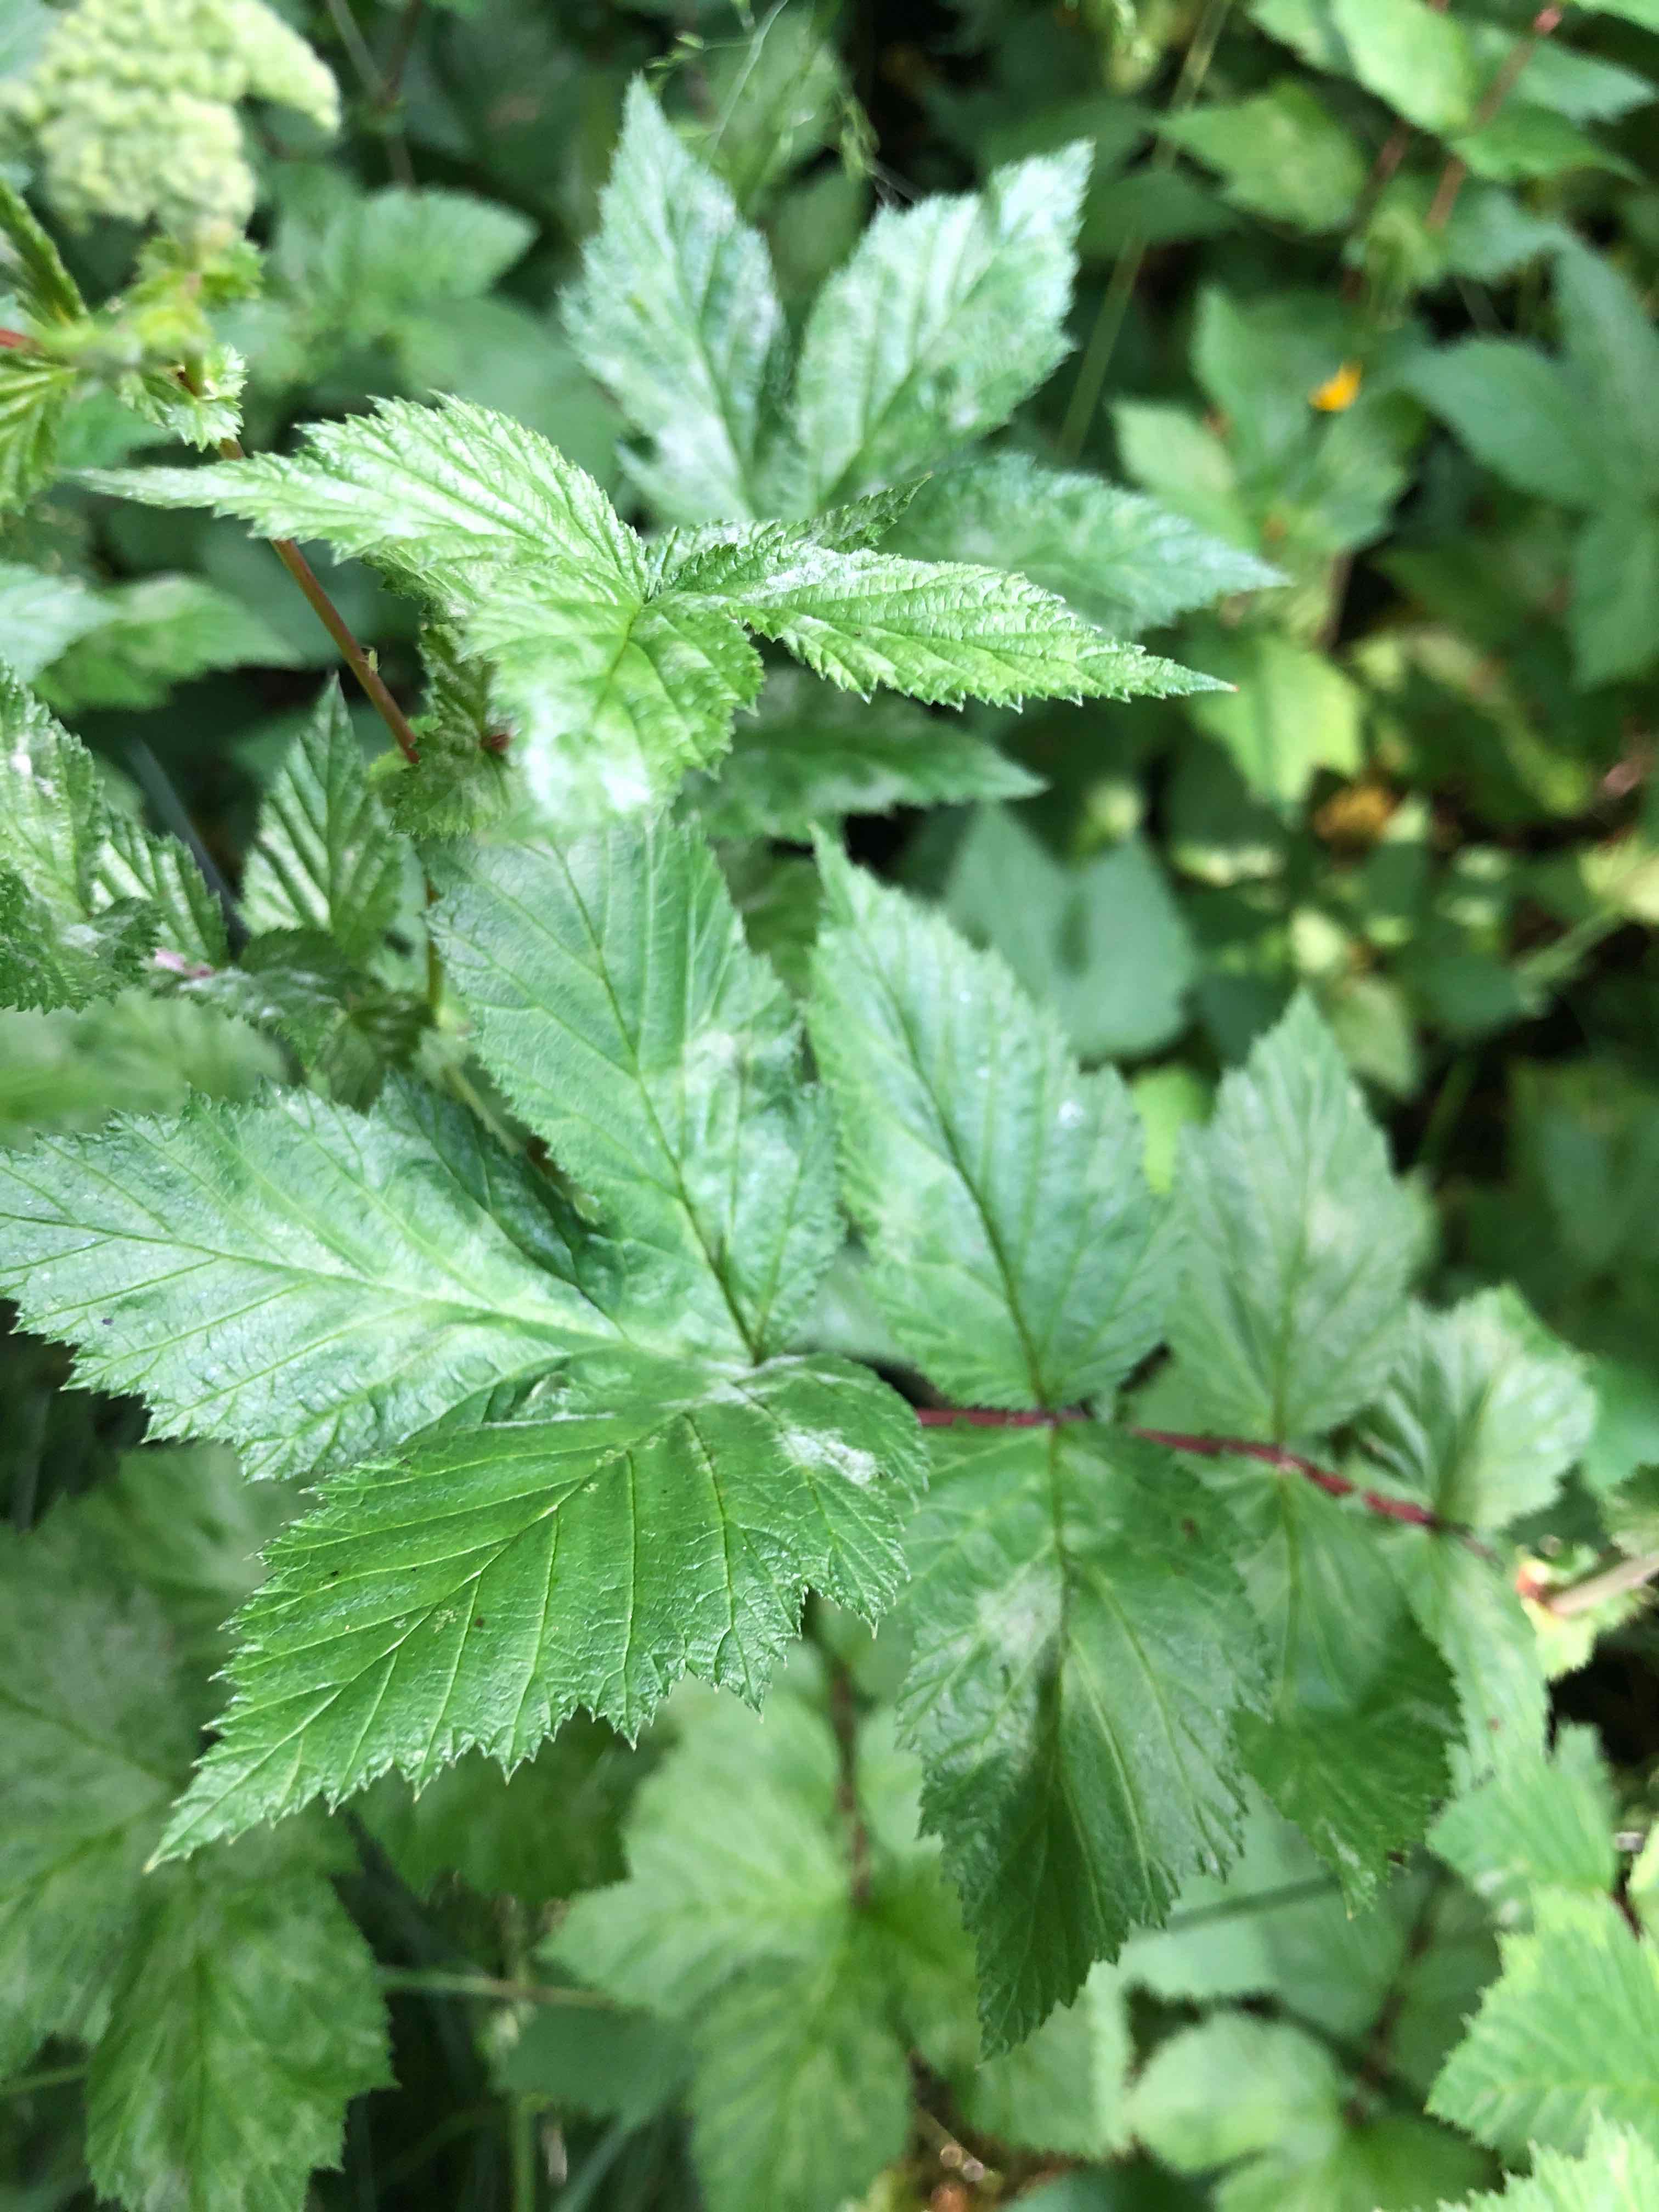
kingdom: Fungi
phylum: Ascomycota
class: Leotiomycetes
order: Helotiales
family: Erysiphaceae
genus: Podosphaera
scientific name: Podosphaera filipendulae
